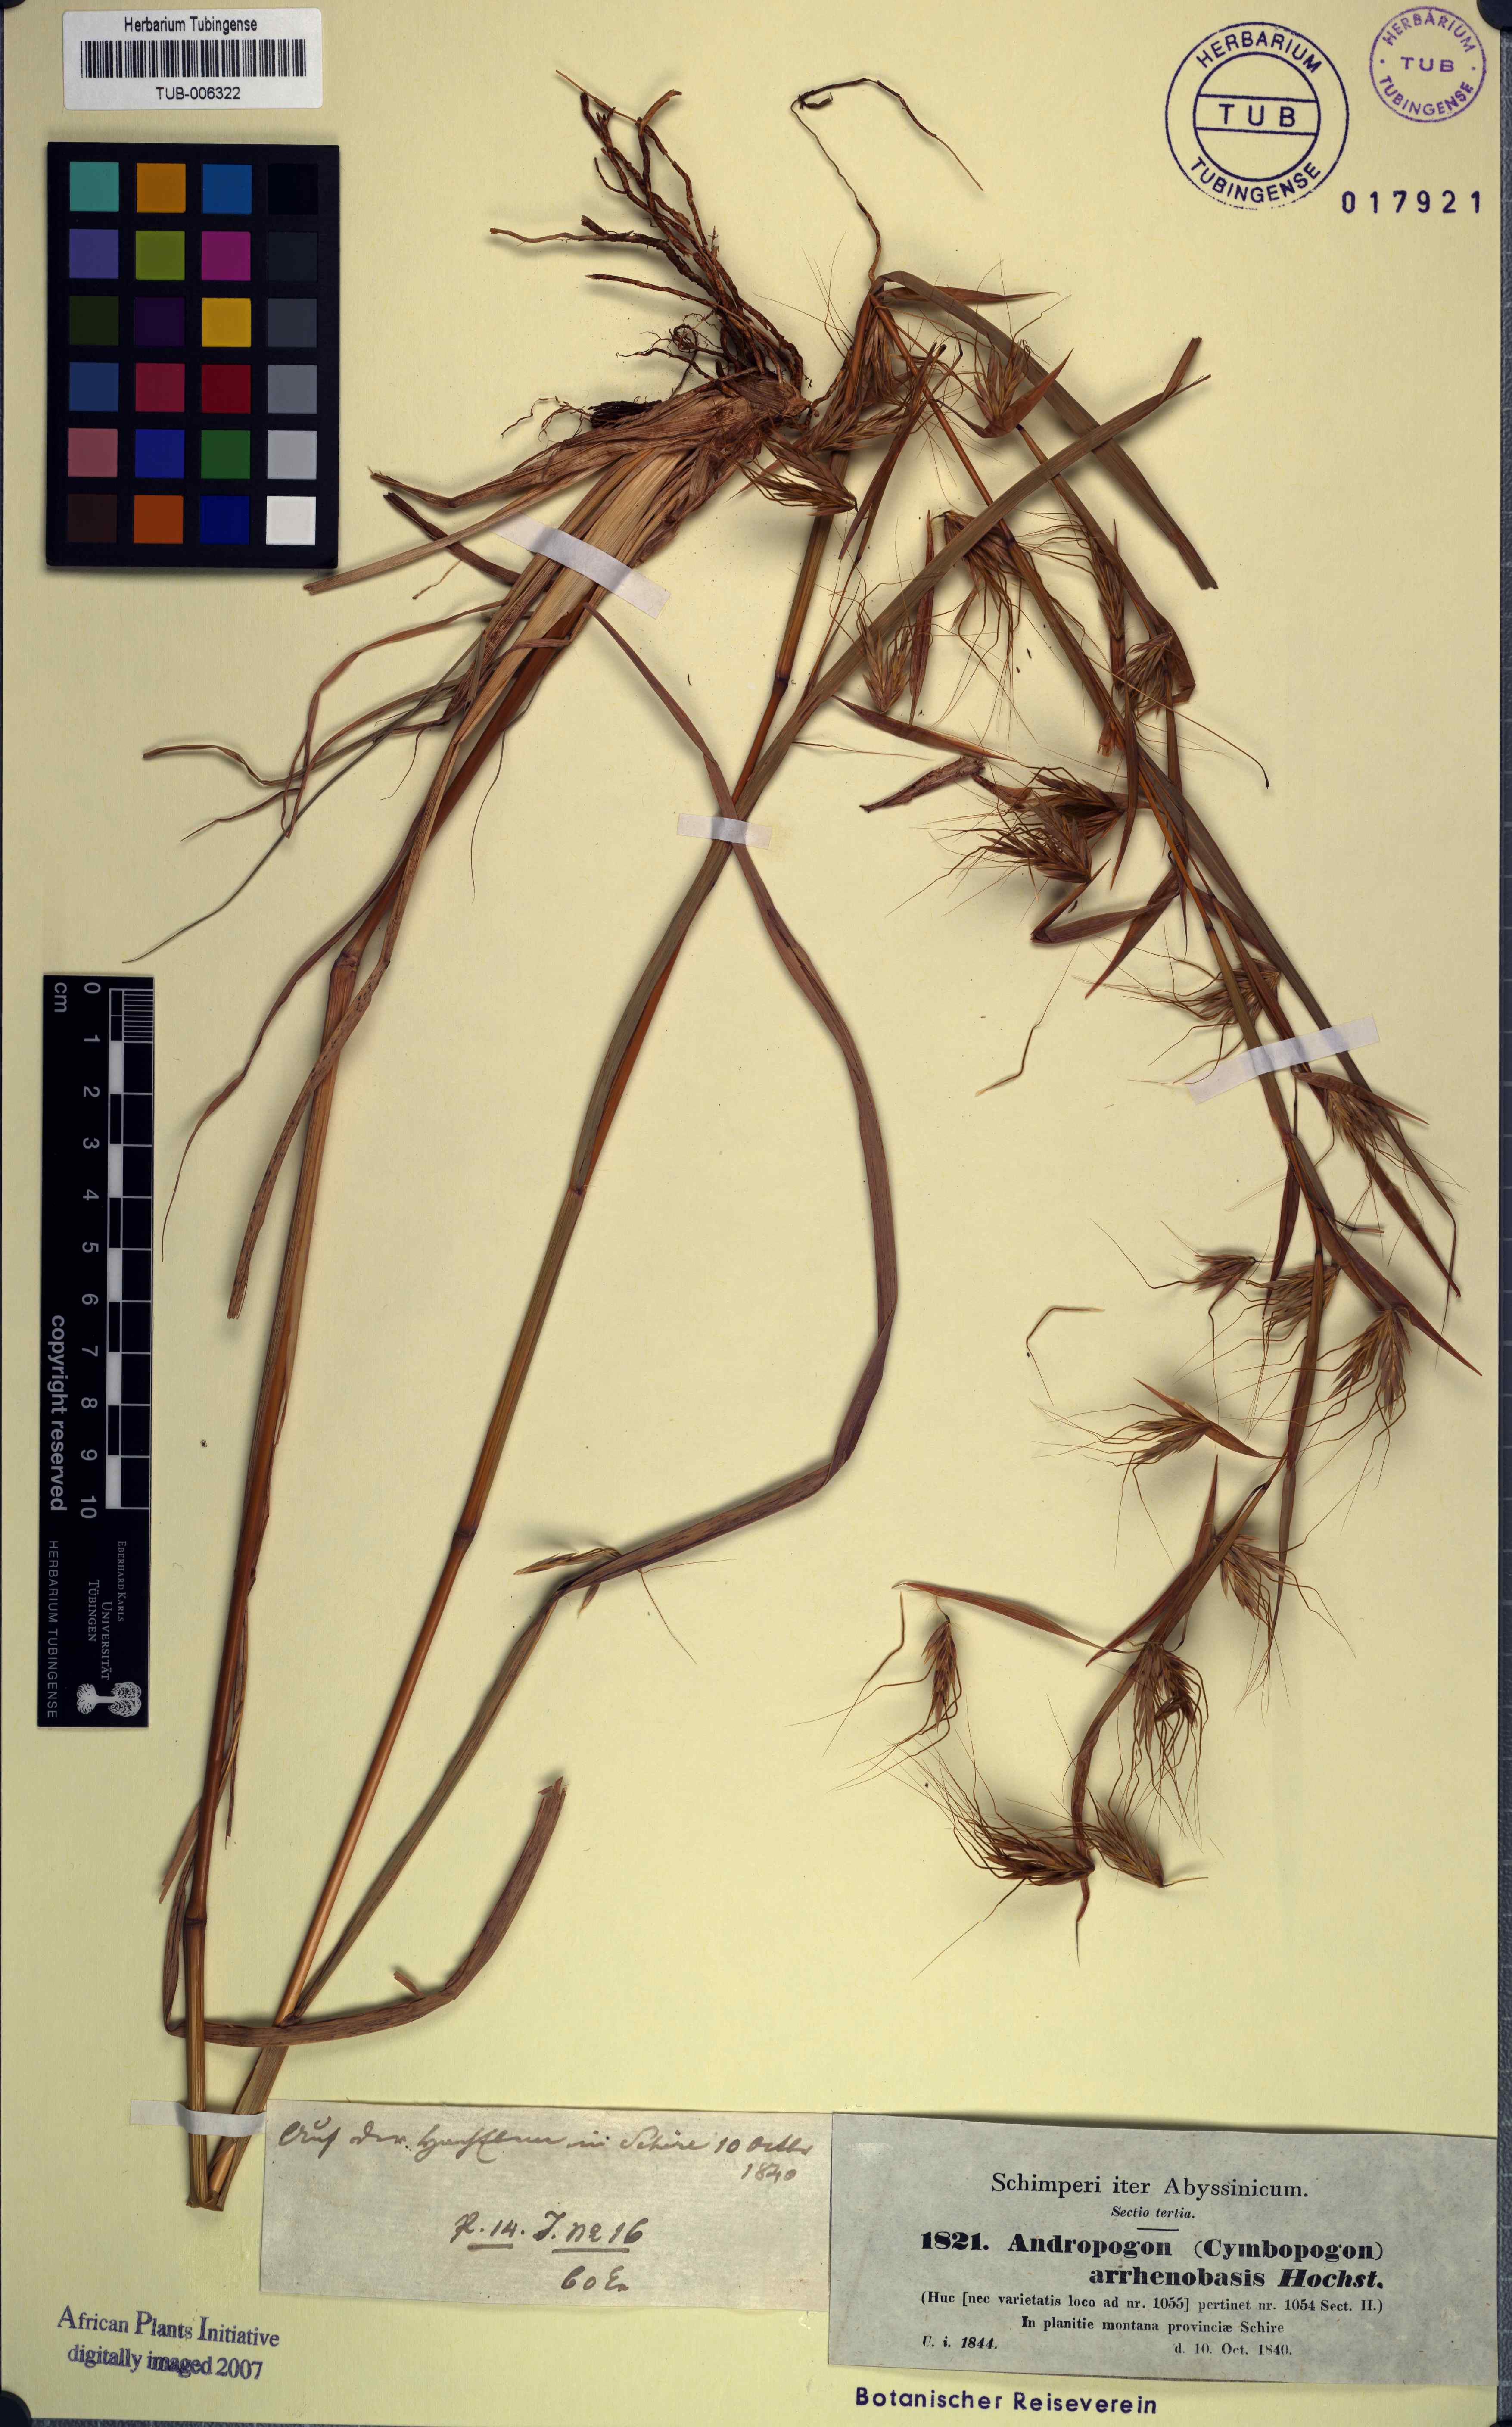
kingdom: Plantae
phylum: Tracheophyta
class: Liliopsida
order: Poales
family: Poaceae
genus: Hyparrhenia
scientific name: Hyparrhenia arrhenobasis
